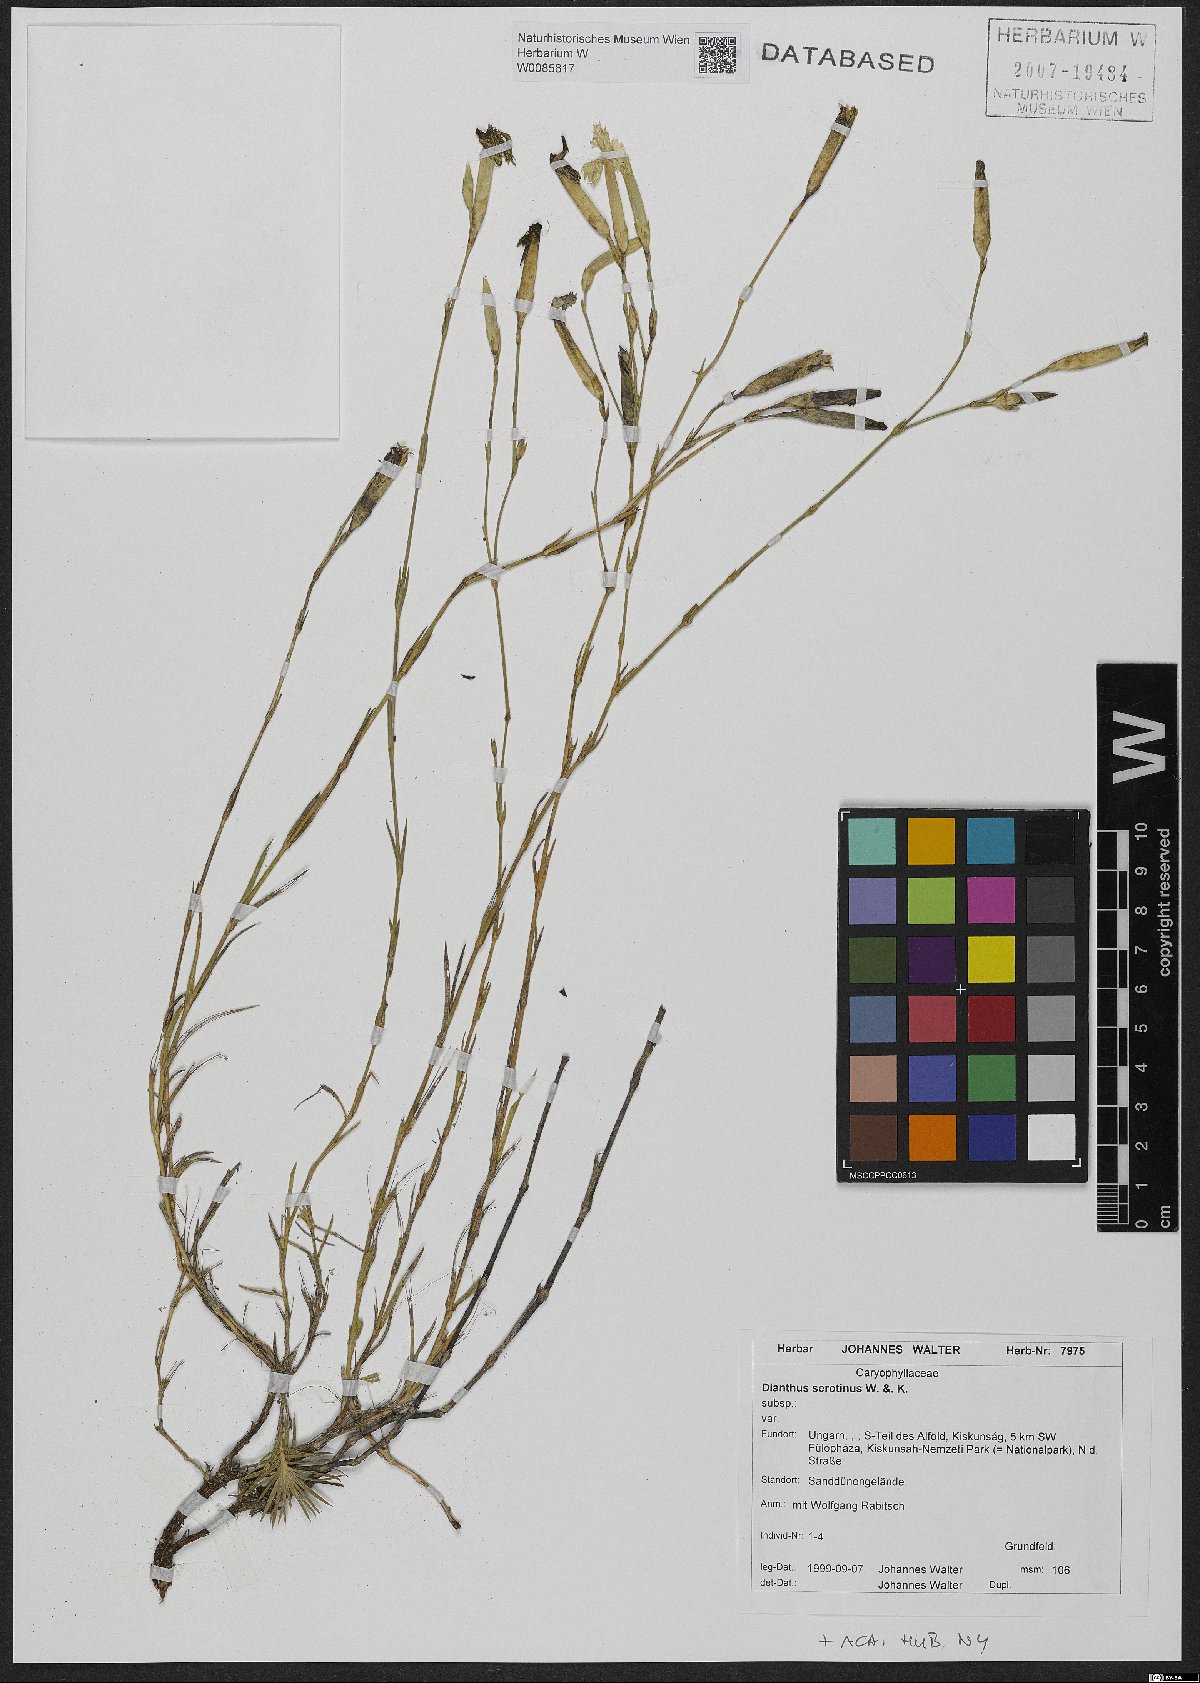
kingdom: Plantae
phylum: Tracheophyta
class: Magnoliopsida
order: Caryophyllales
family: Caryophyllaceae
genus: Dianthus
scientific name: Dianthus serotinus
